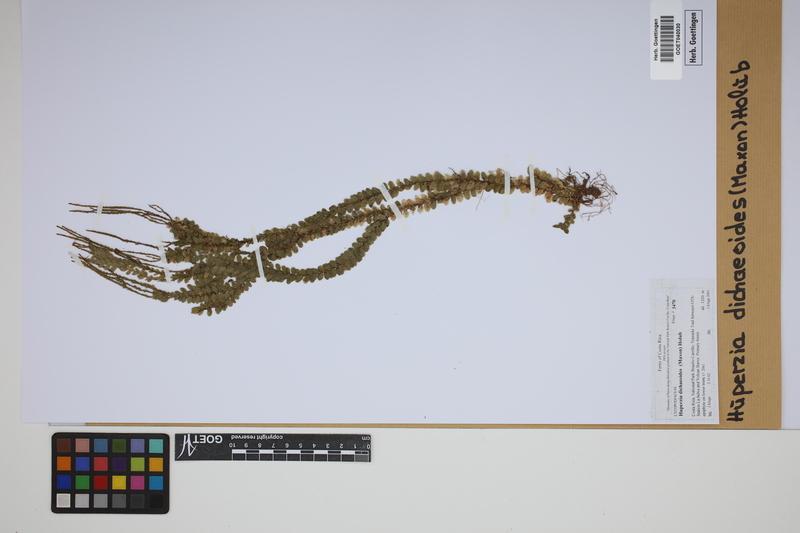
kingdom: Plantae
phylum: Tracheophyta
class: Lycopodiopsida
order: Lycopodiales
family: Lycopodiaceae
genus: Phlegmariurus
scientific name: Phlegmariurus dichaeoides
